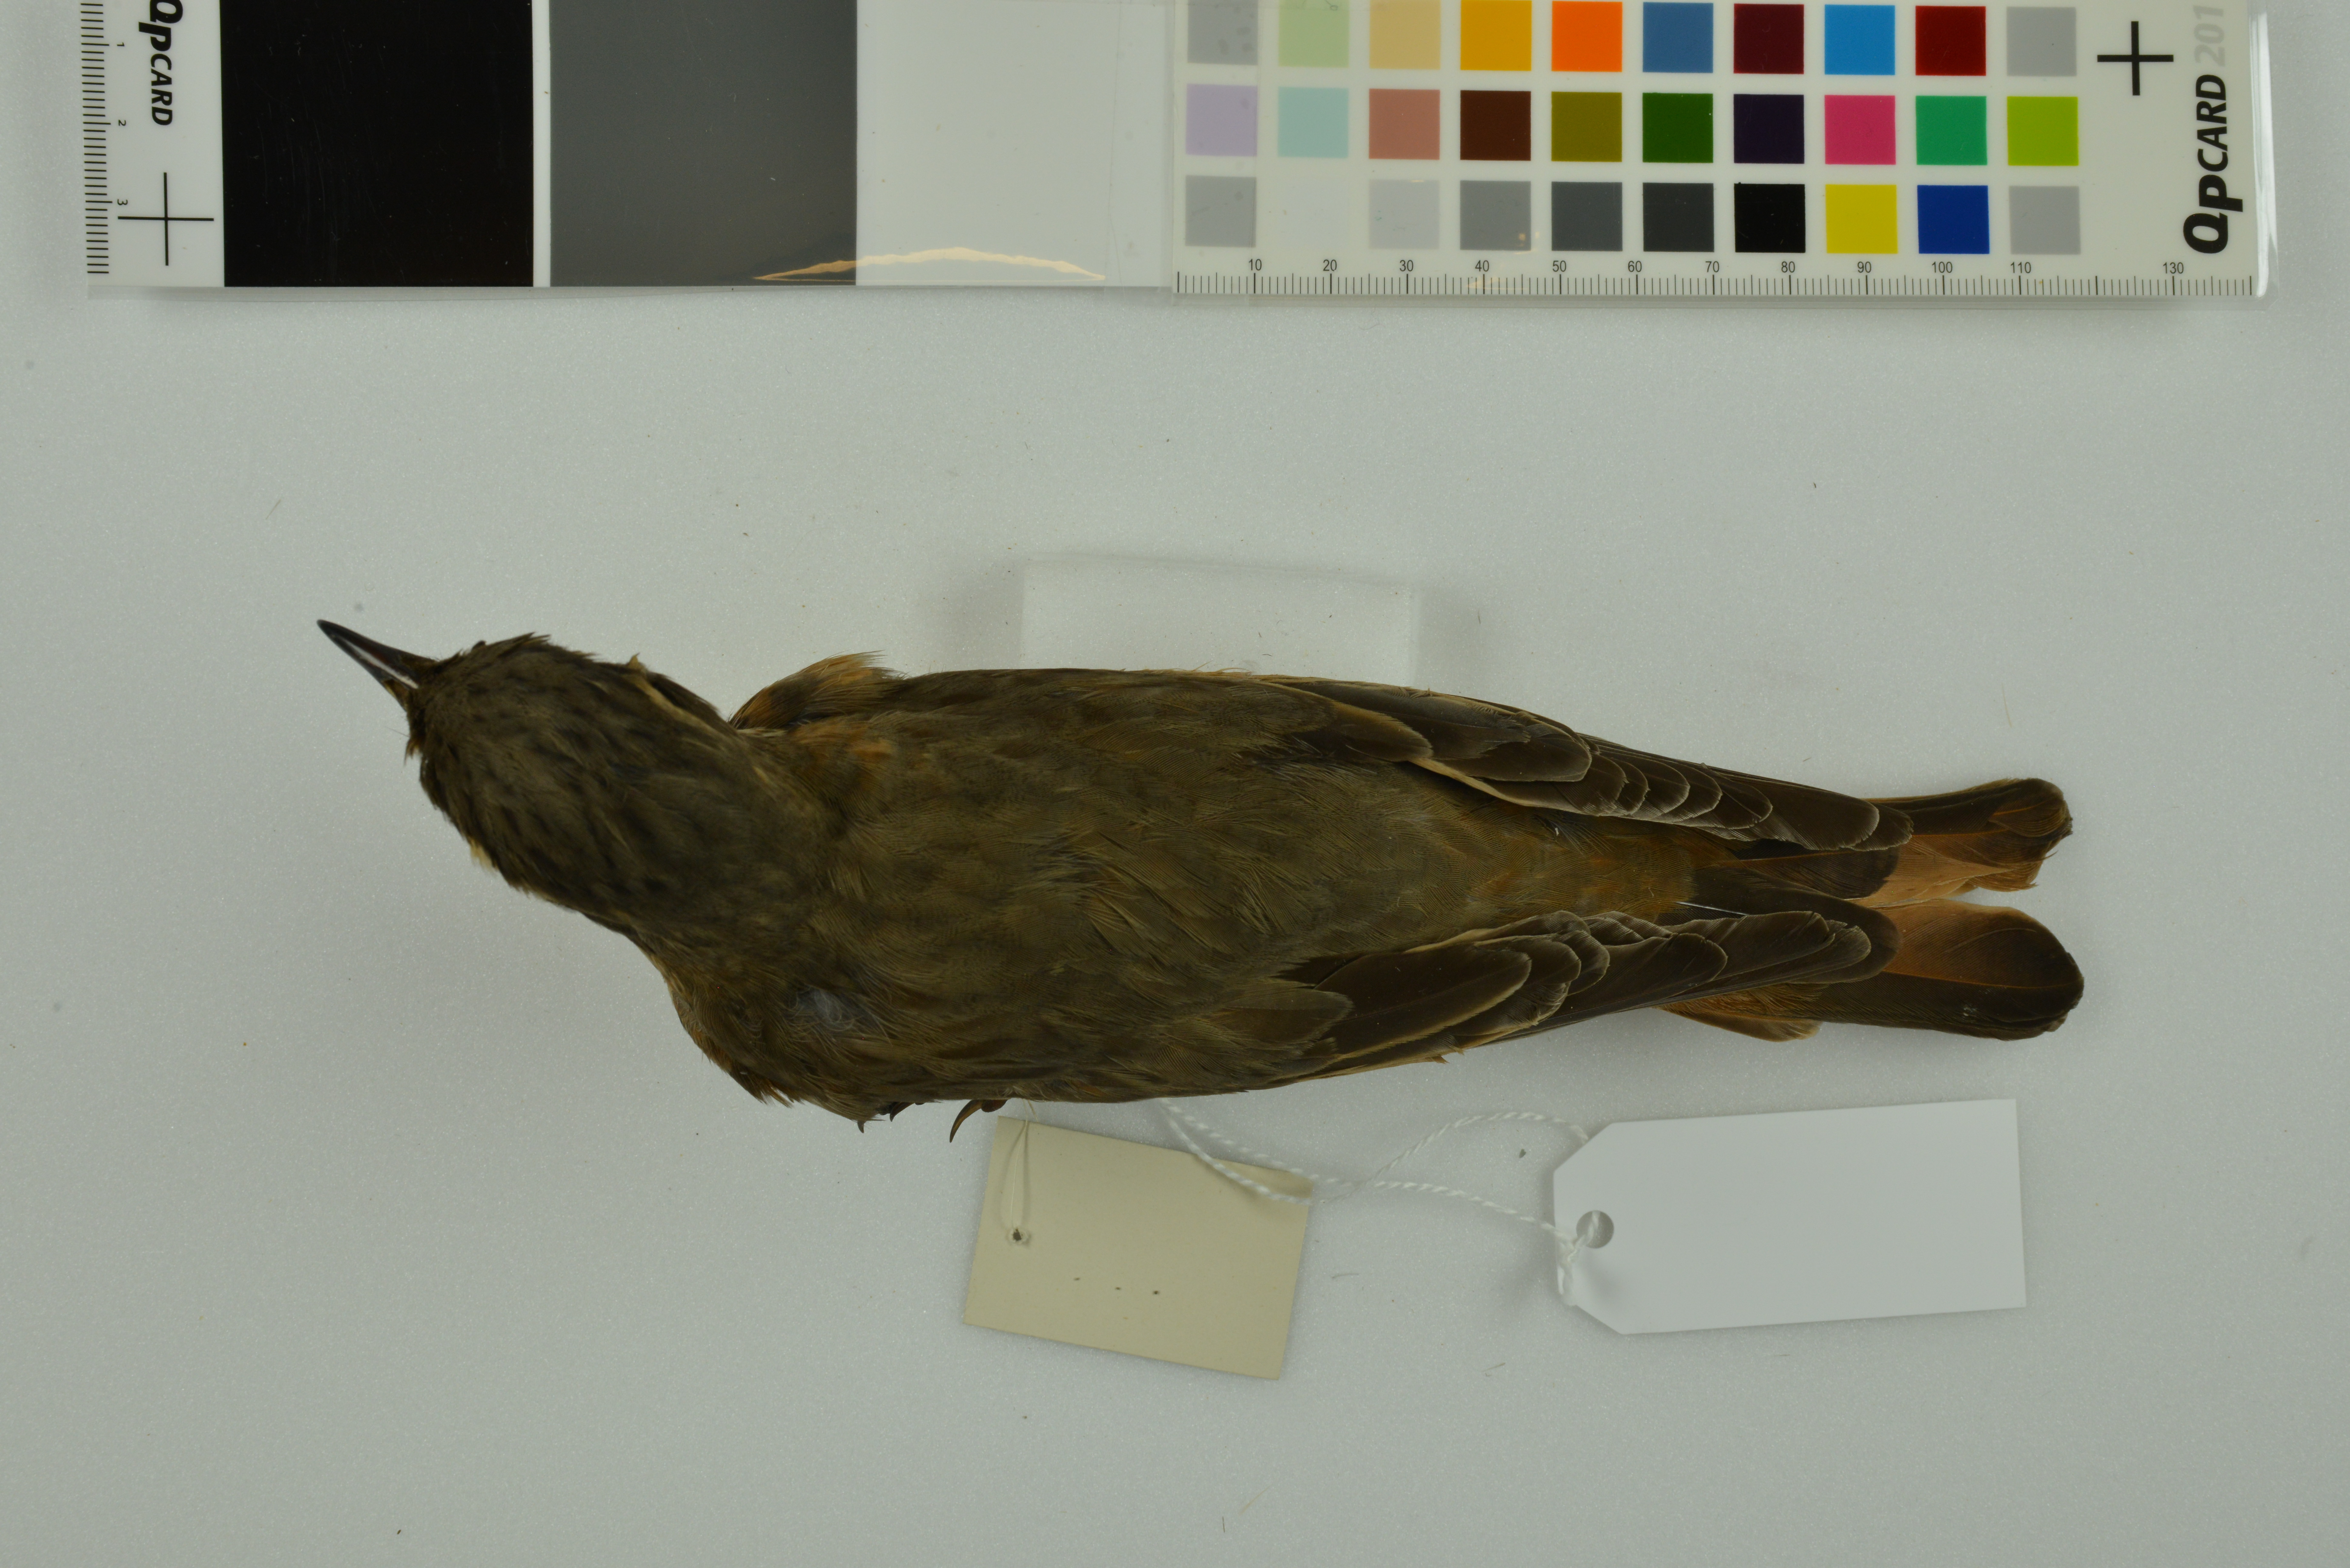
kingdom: Animalia
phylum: Chordata
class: Aves
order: Passeriformes
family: Turdidae
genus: Turdus
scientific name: Turdus naumanni
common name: Naumann's thrush
